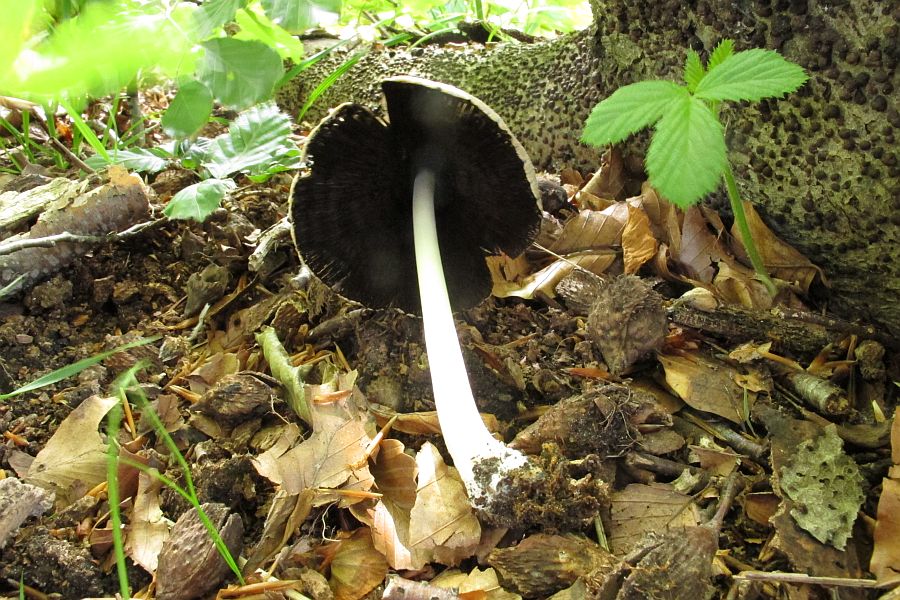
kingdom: Fungi
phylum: Basidiomycota
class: Agaricomycetes
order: Agaricales
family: Psathyrellaceae
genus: Coprinellus
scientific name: Coprinellus xanthothrix
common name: gultrådet blækhat
